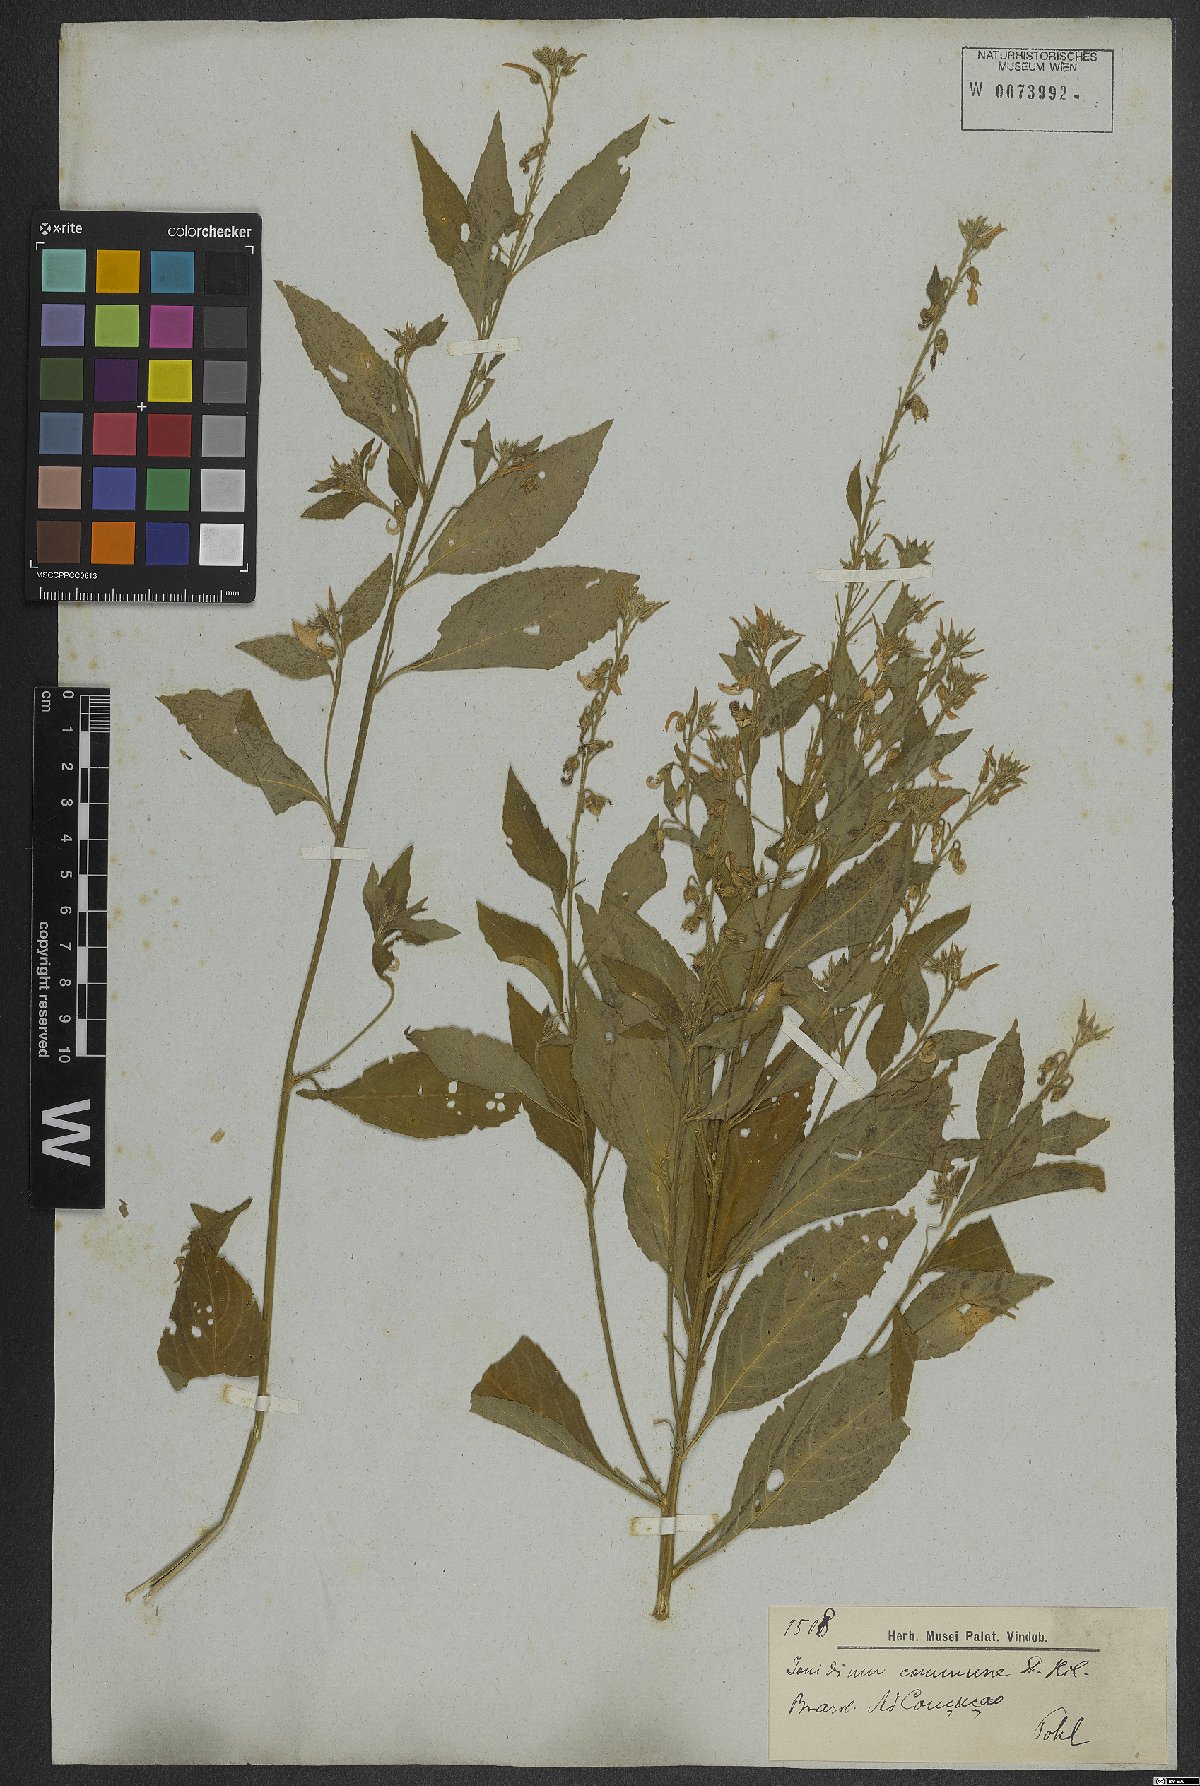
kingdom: Plantae
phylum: Tracheophyta
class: Magnoliopsida
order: Malpighiales
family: Violaceae
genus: Pombalia
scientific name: Pombalia communis
